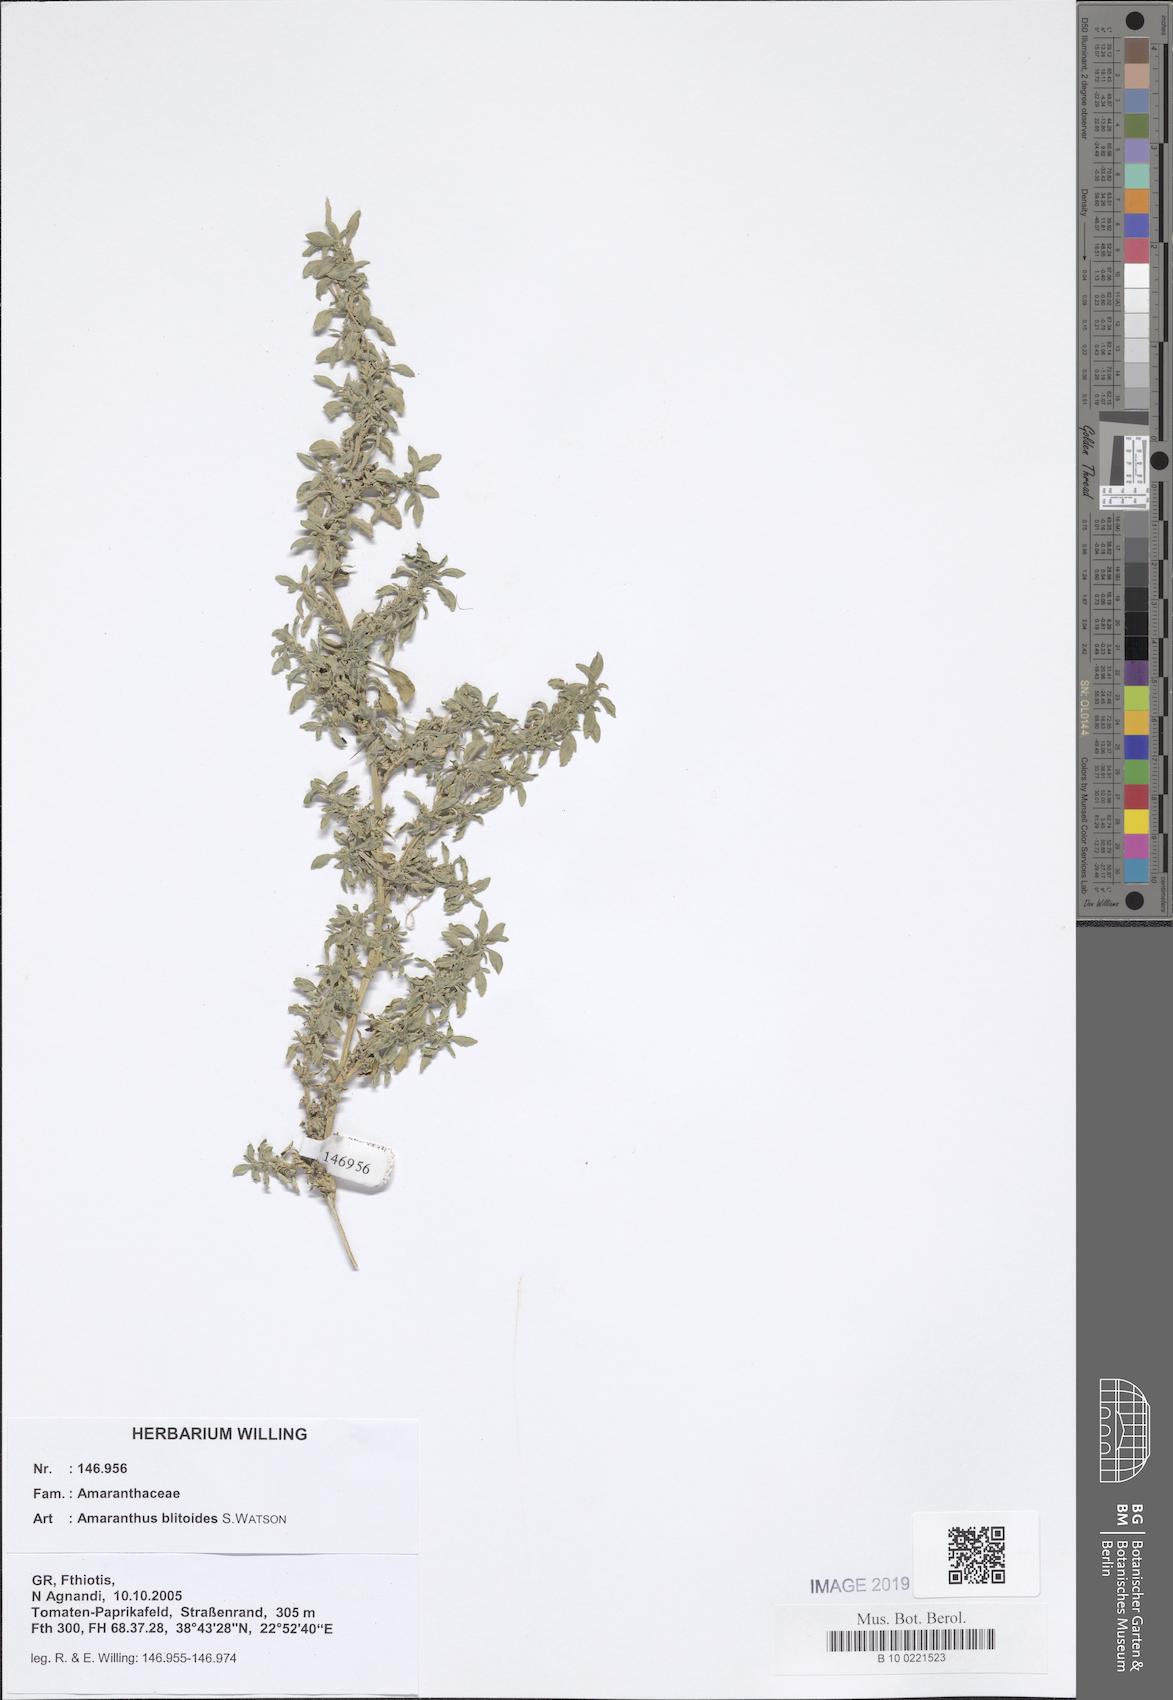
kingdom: Plantae
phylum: Tracheophyta
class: Magnoliopsida
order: Caryophyllales
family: Amaranthaceae
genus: Amaranthus
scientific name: Amaranthus blitoides
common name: Prostrate pigweed
